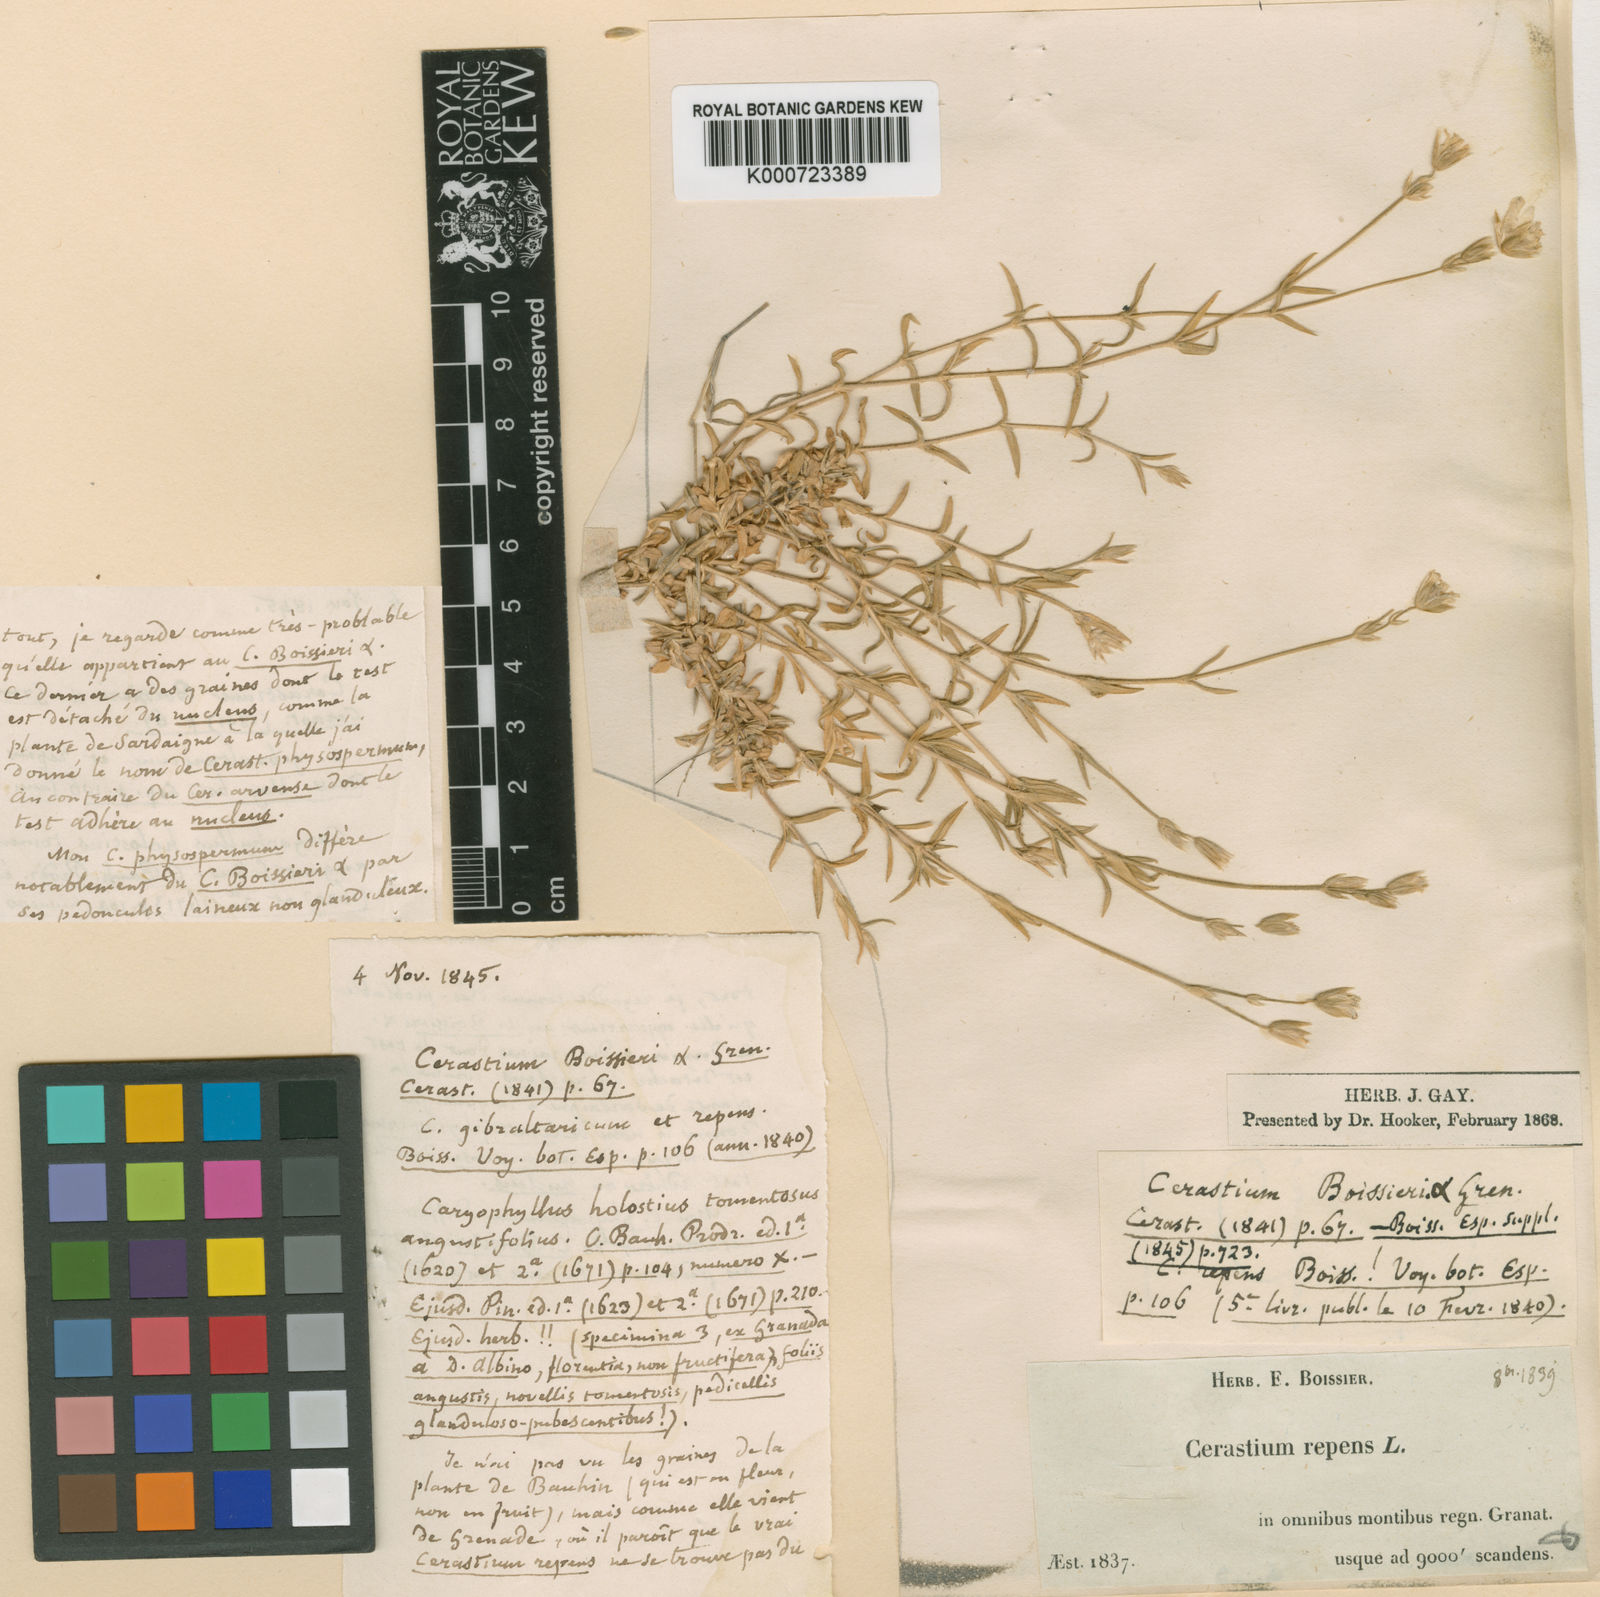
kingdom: Plantae
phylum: Tracheophyta
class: Magnoliopsida
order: Caryophyllales
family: Caryophyllaceae
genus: Cerastium
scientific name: Cerastium gibraltaricum
